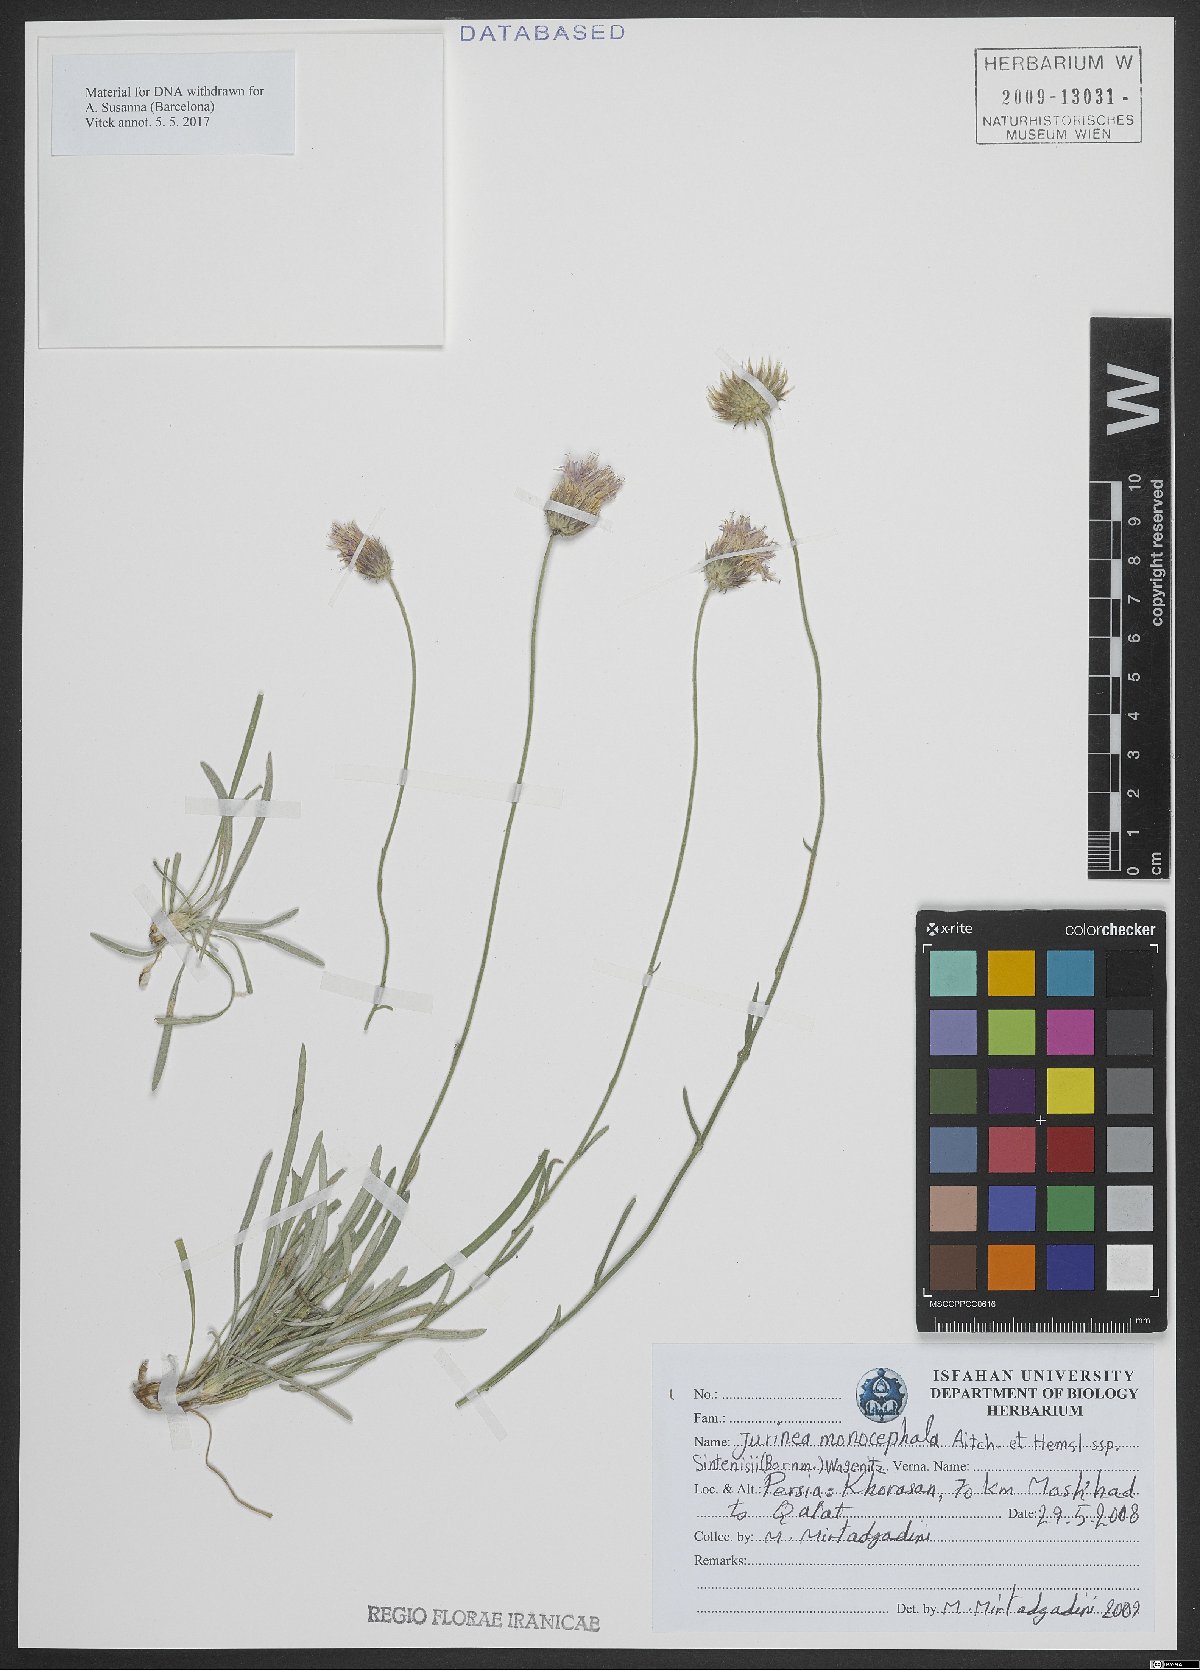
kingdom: Plantae
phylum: Tracheophyta
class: Magnoliopsida
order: Asterales
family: Asteraceae
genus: Jurinea
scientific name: Jurinea sintenisii
